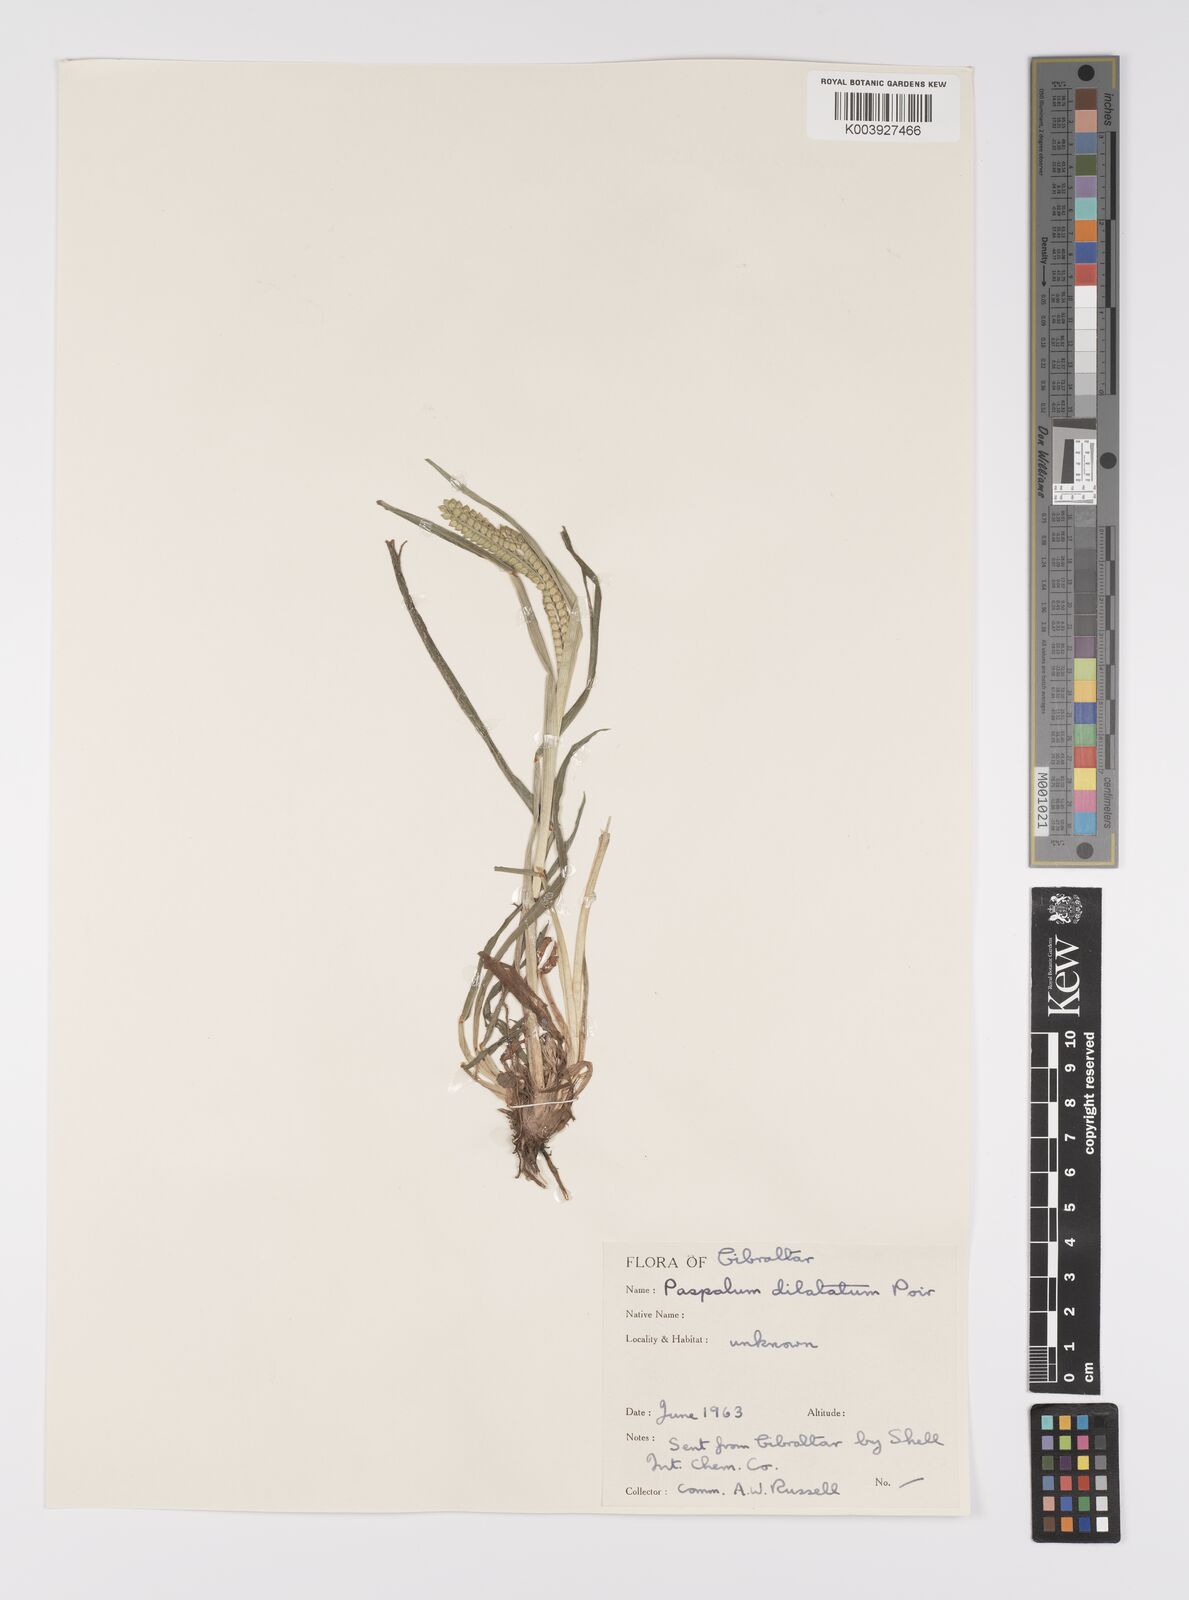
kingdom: Plantae
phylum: Tracheophyta
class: Liliopsida
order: Poales
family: Poaceae
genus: Paspalum
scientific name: Paspalum dilatatum
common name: Dallisgrass
